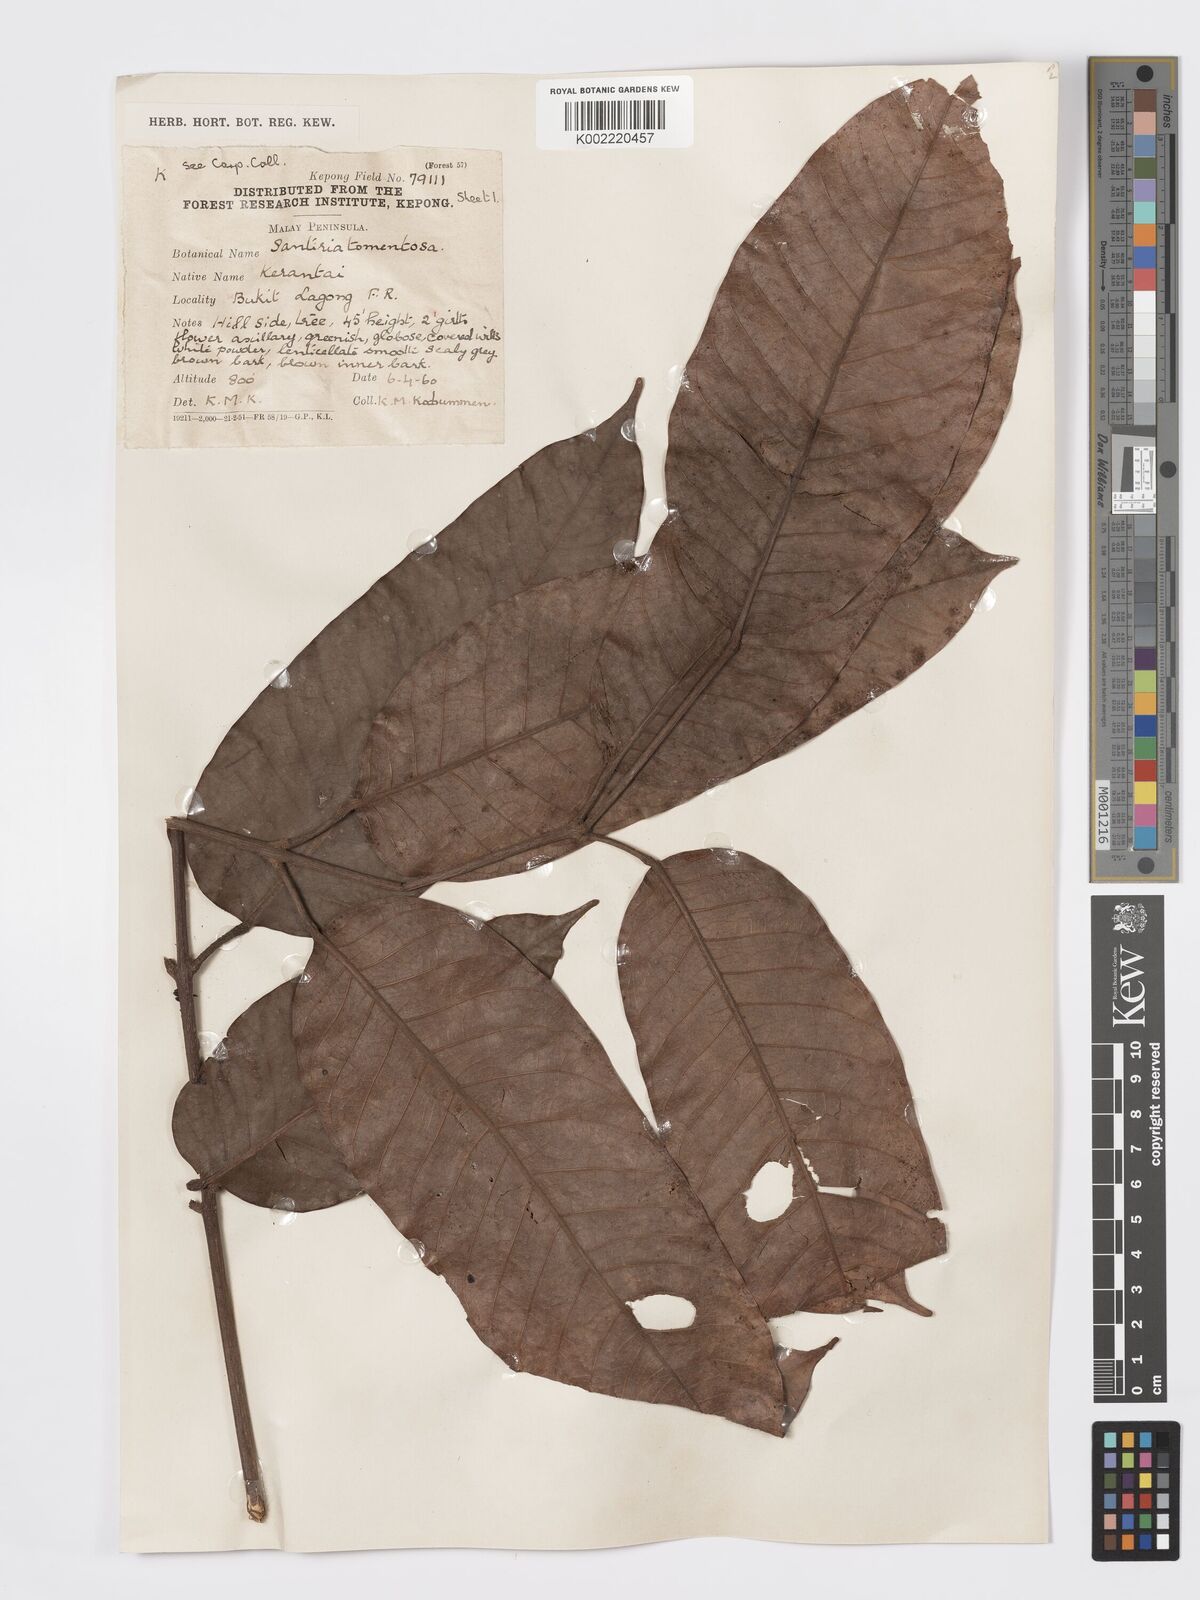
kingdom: Plantae
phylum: Tracheophyta
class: Magnoliopsida
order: Sapindales
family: Burseraceae
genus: Santiria
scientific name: Santiria tomentosa
